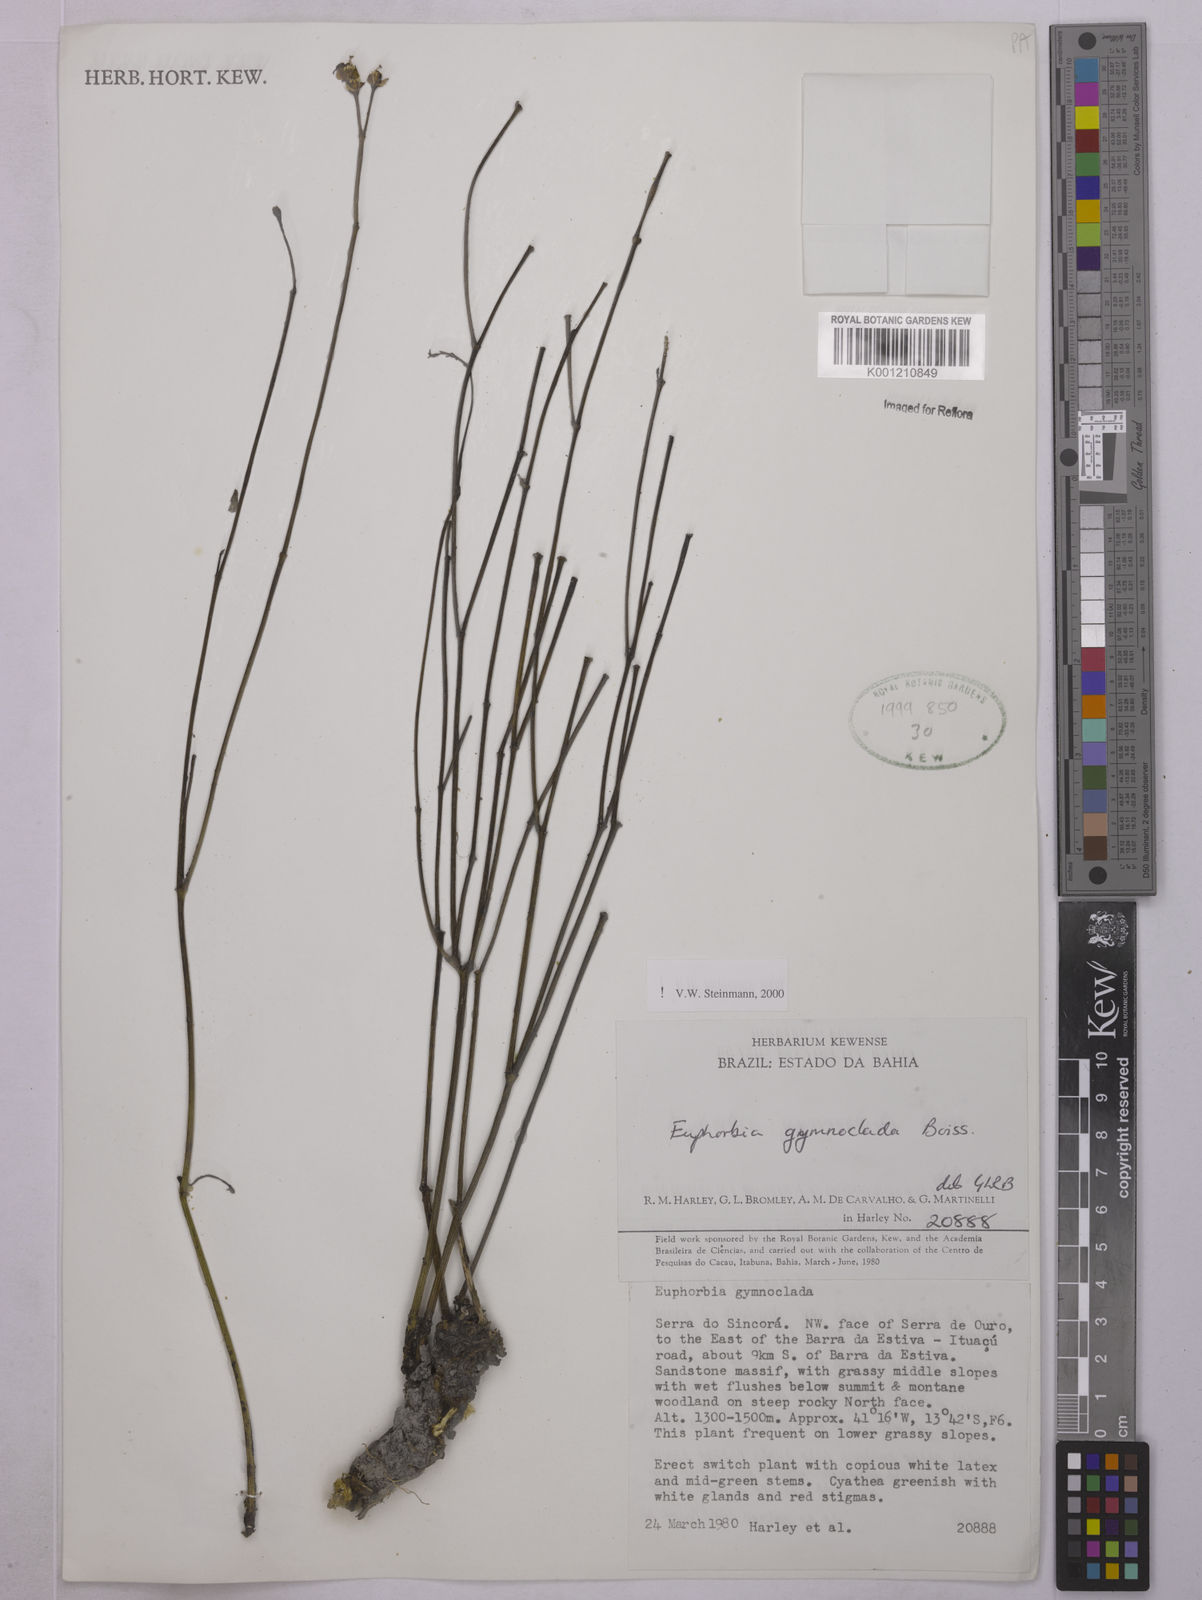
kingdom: Plantae
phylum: Tracheophyta
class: Magnoliopsida
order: Malpighiales
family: Euphorbiaceae
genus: Euphorbia
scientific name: Euphorbia gymnoclada
